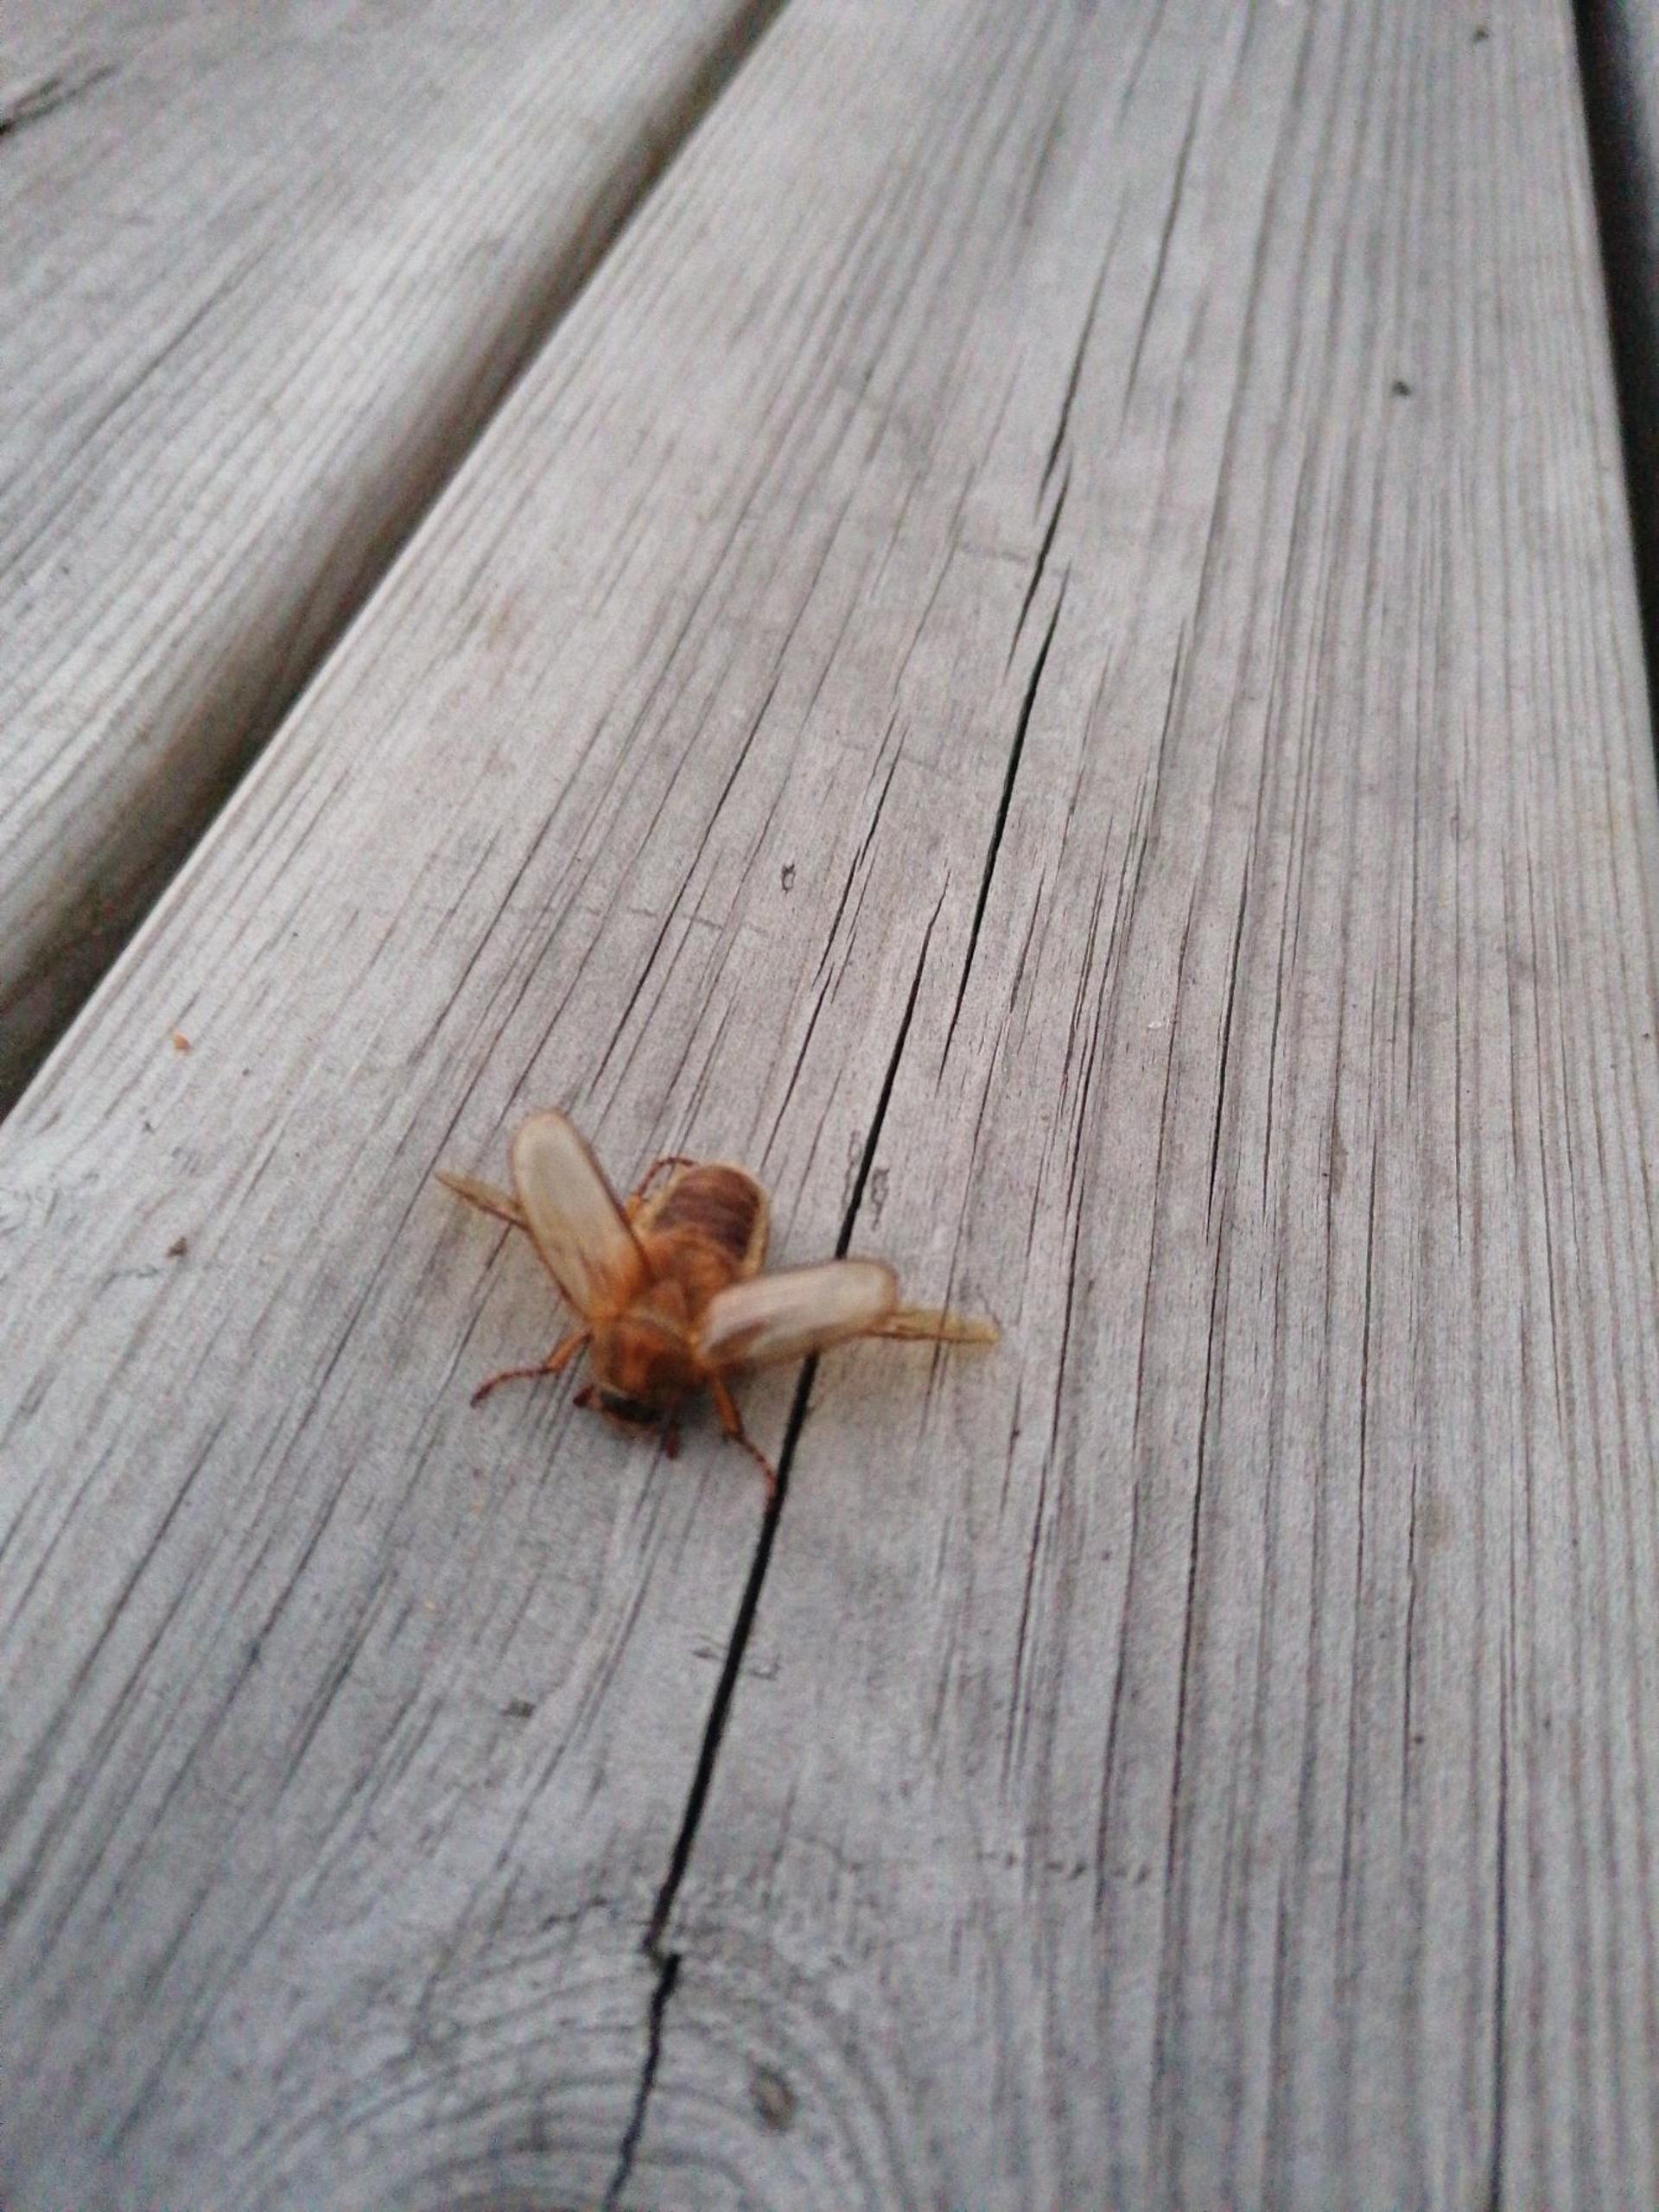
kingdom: Animalia
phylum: Arthropoda
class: Insecta
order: Coleoptera
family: Scarabaeidae
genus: Amphimallon
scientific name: Amphimallon solstitiale
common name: Sankthansoldenborre
